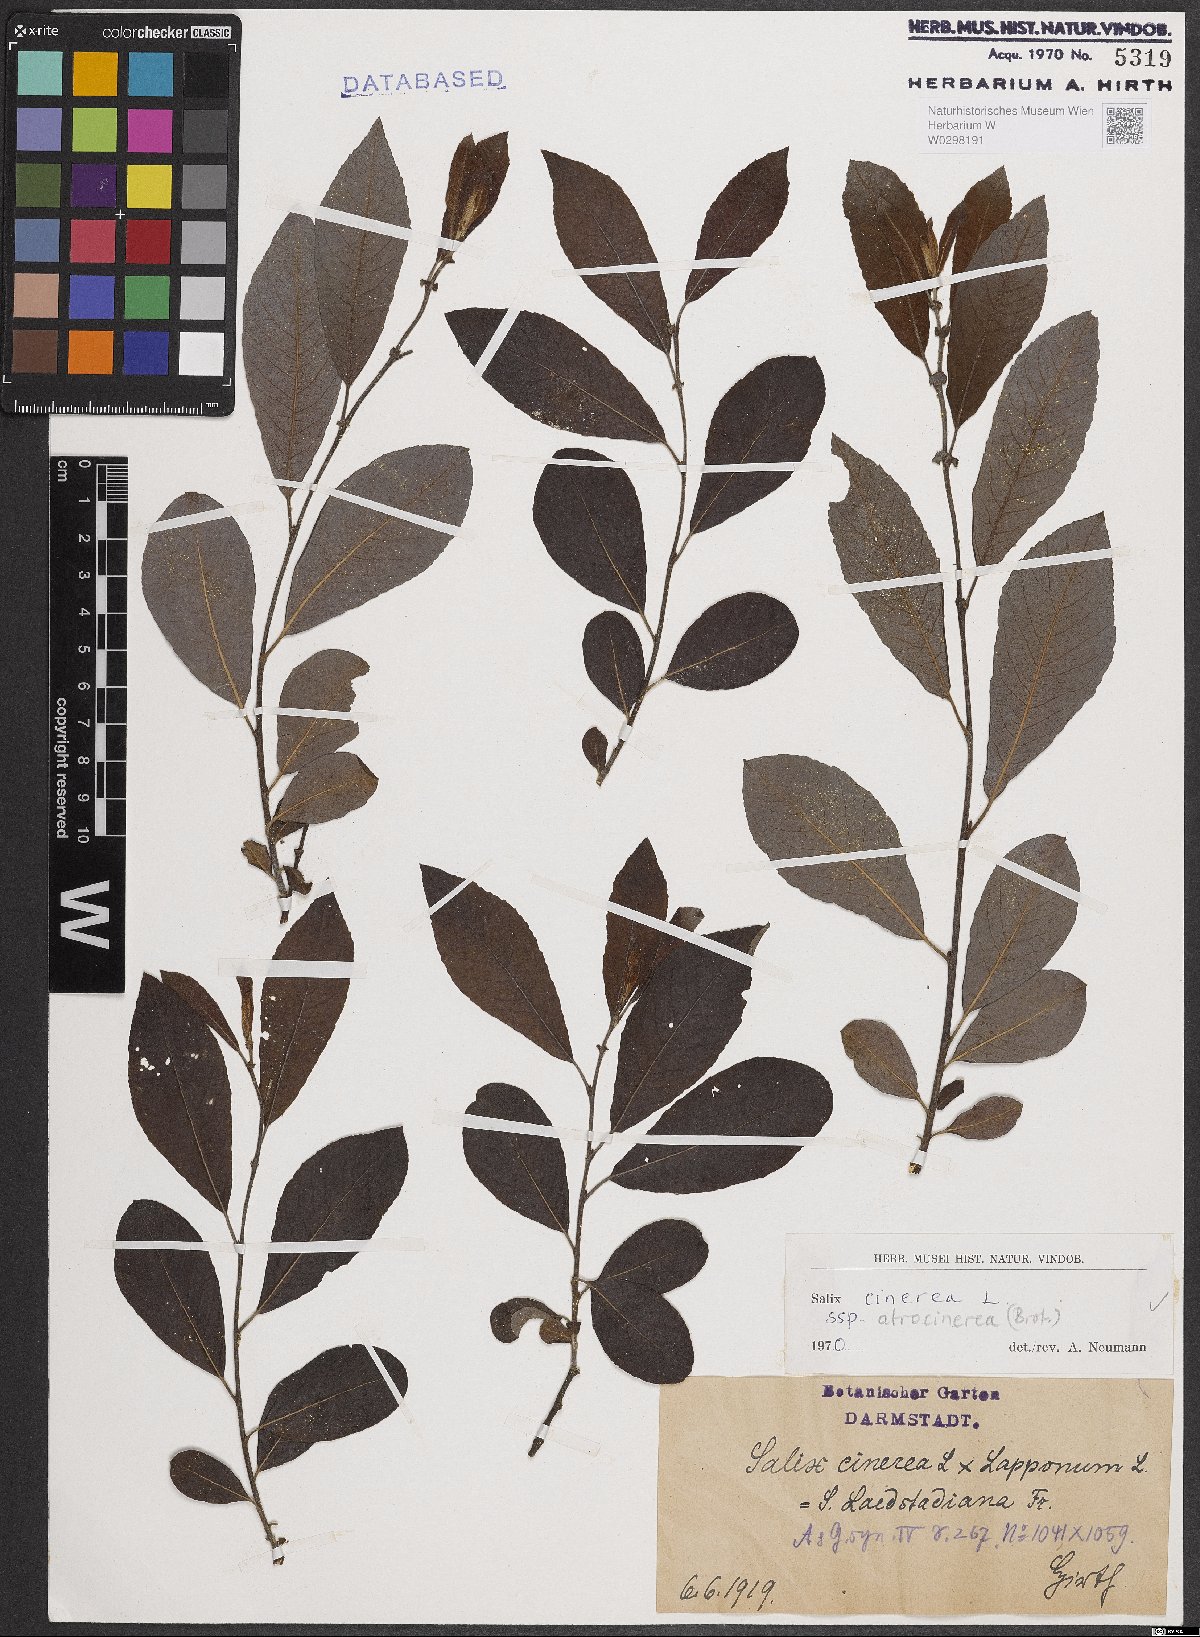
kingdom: Plantae
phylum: Tracheophyta
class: Magnoliopsida
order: Malpighiales
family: Salicaceae
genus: Salix
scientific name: Salix atrocinerea
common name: Rusty willow
